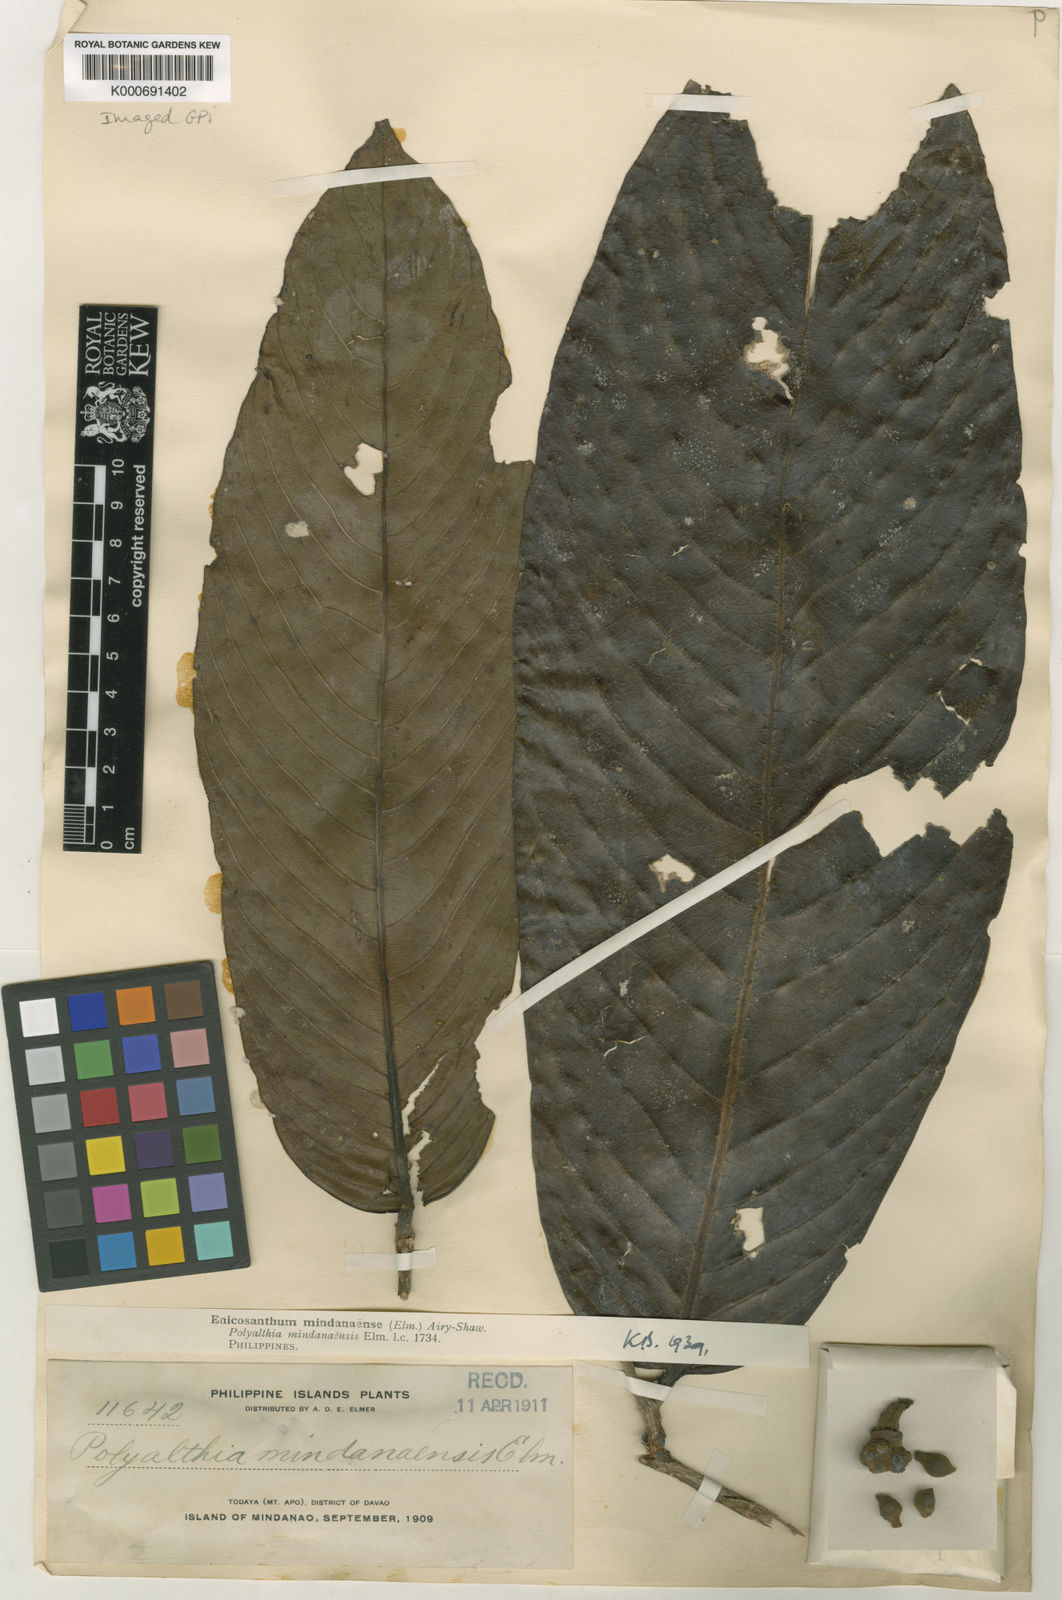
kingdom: Plantae
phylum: Tracheophyta
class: Magnoliopsida
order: Magnoliales
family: Annonaceae
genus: Enicosanthum
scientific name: Enicosanthum mindanaense
